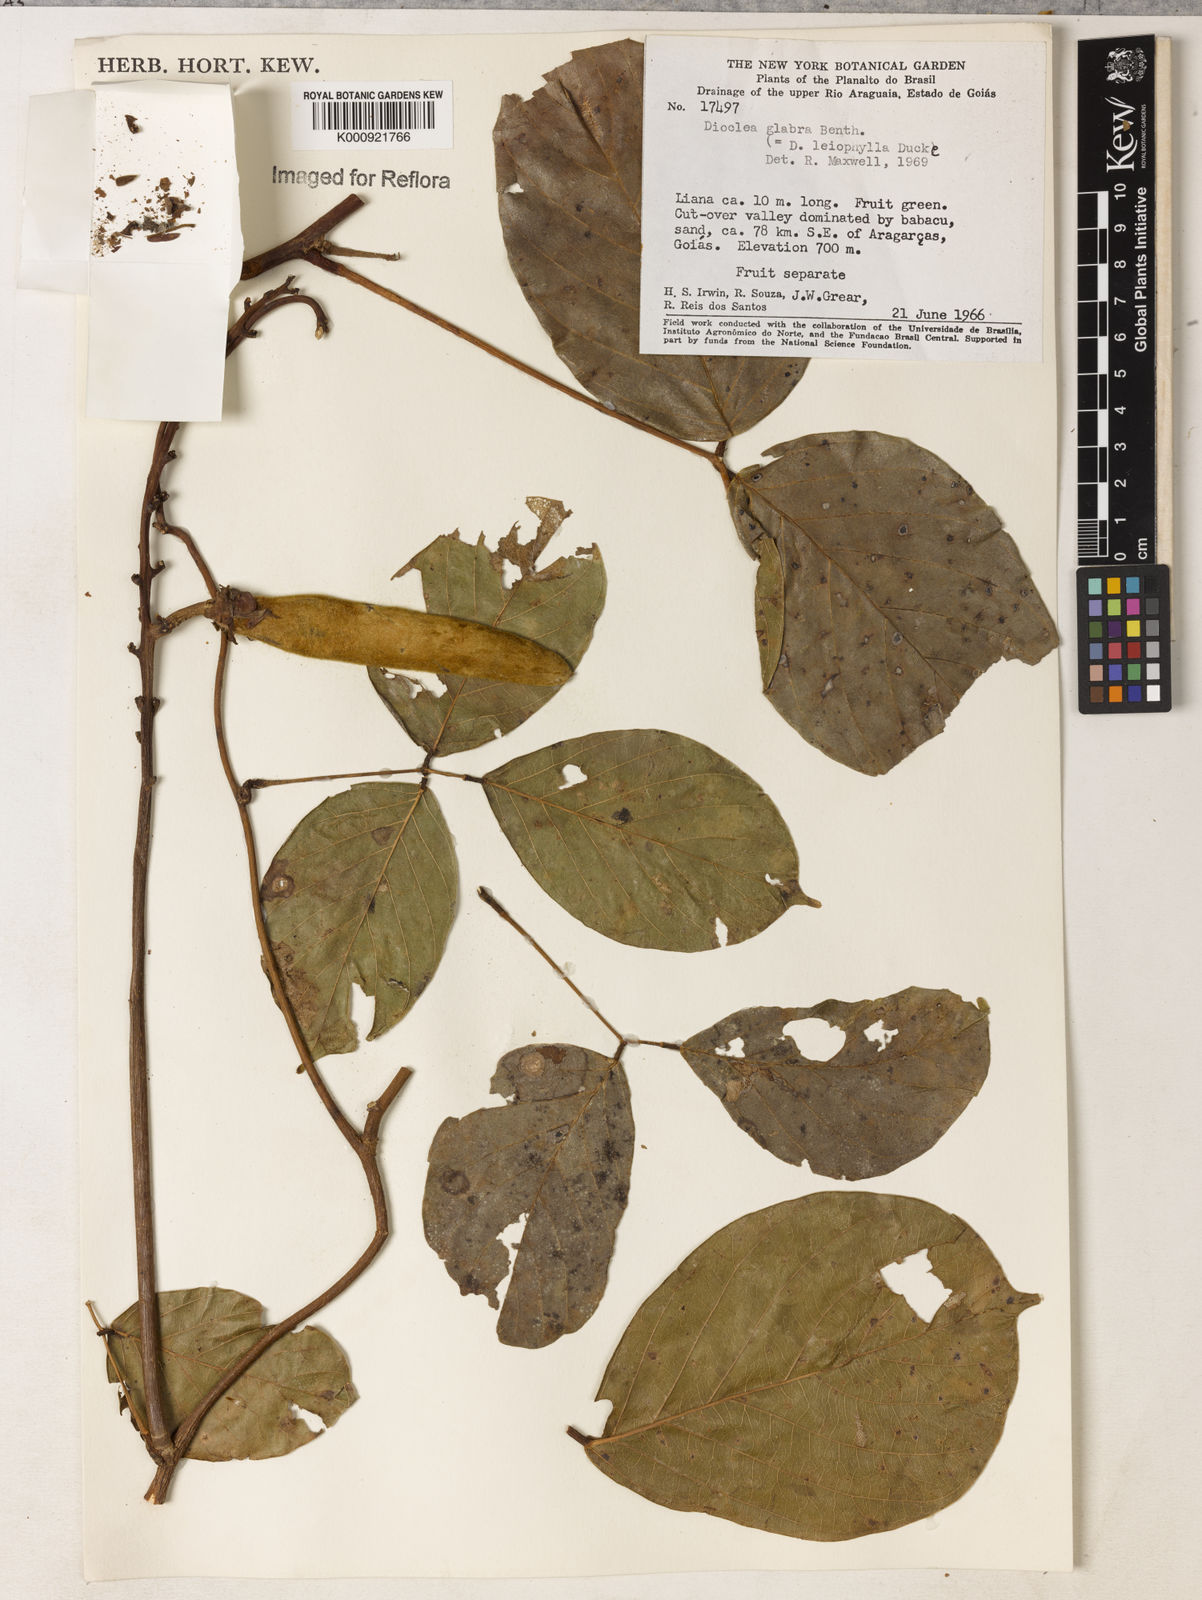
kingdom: Plantae
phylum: Tracheophyta
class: Magnoliopsida
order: Fabales
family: Fabaceae
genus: Macropsychanthus
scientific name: Macropsychanthus glaber
